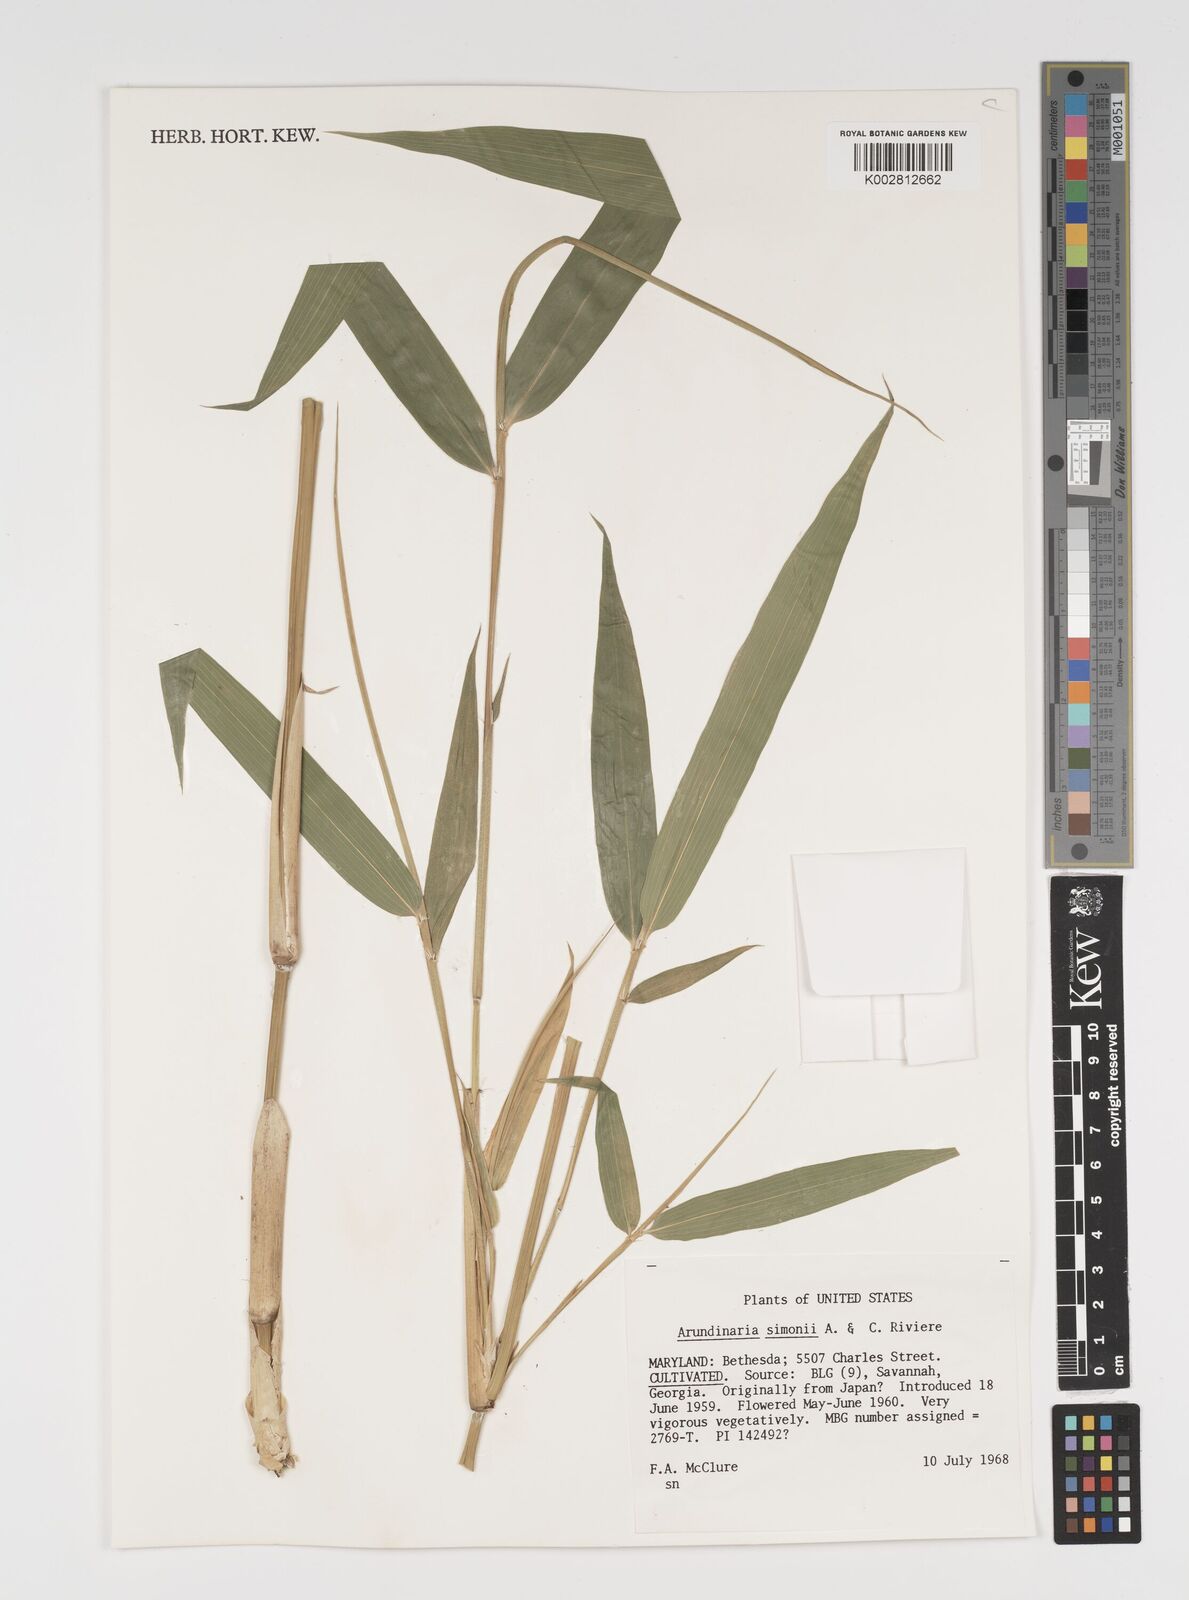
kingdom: Plantae
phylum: Tracheophyta
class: Liliopsida
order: Poales
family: Poaceae
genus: Pleioblastus
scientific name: Pleioblastus simonii
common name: Simon bamboo
